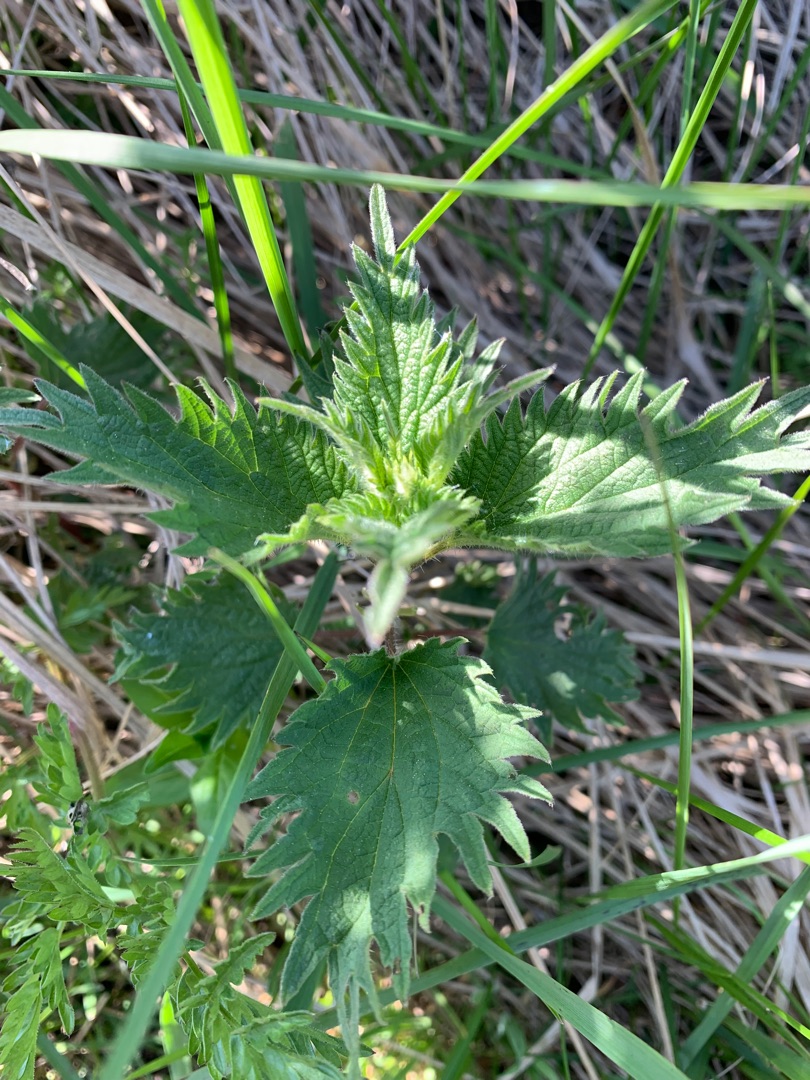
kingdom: Plantae
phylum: Tracheophyta
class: Magnoliopsida
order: Rosales
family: Urticaceae
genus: Urtica
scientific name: Urtica dioica
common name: Stor nælde
